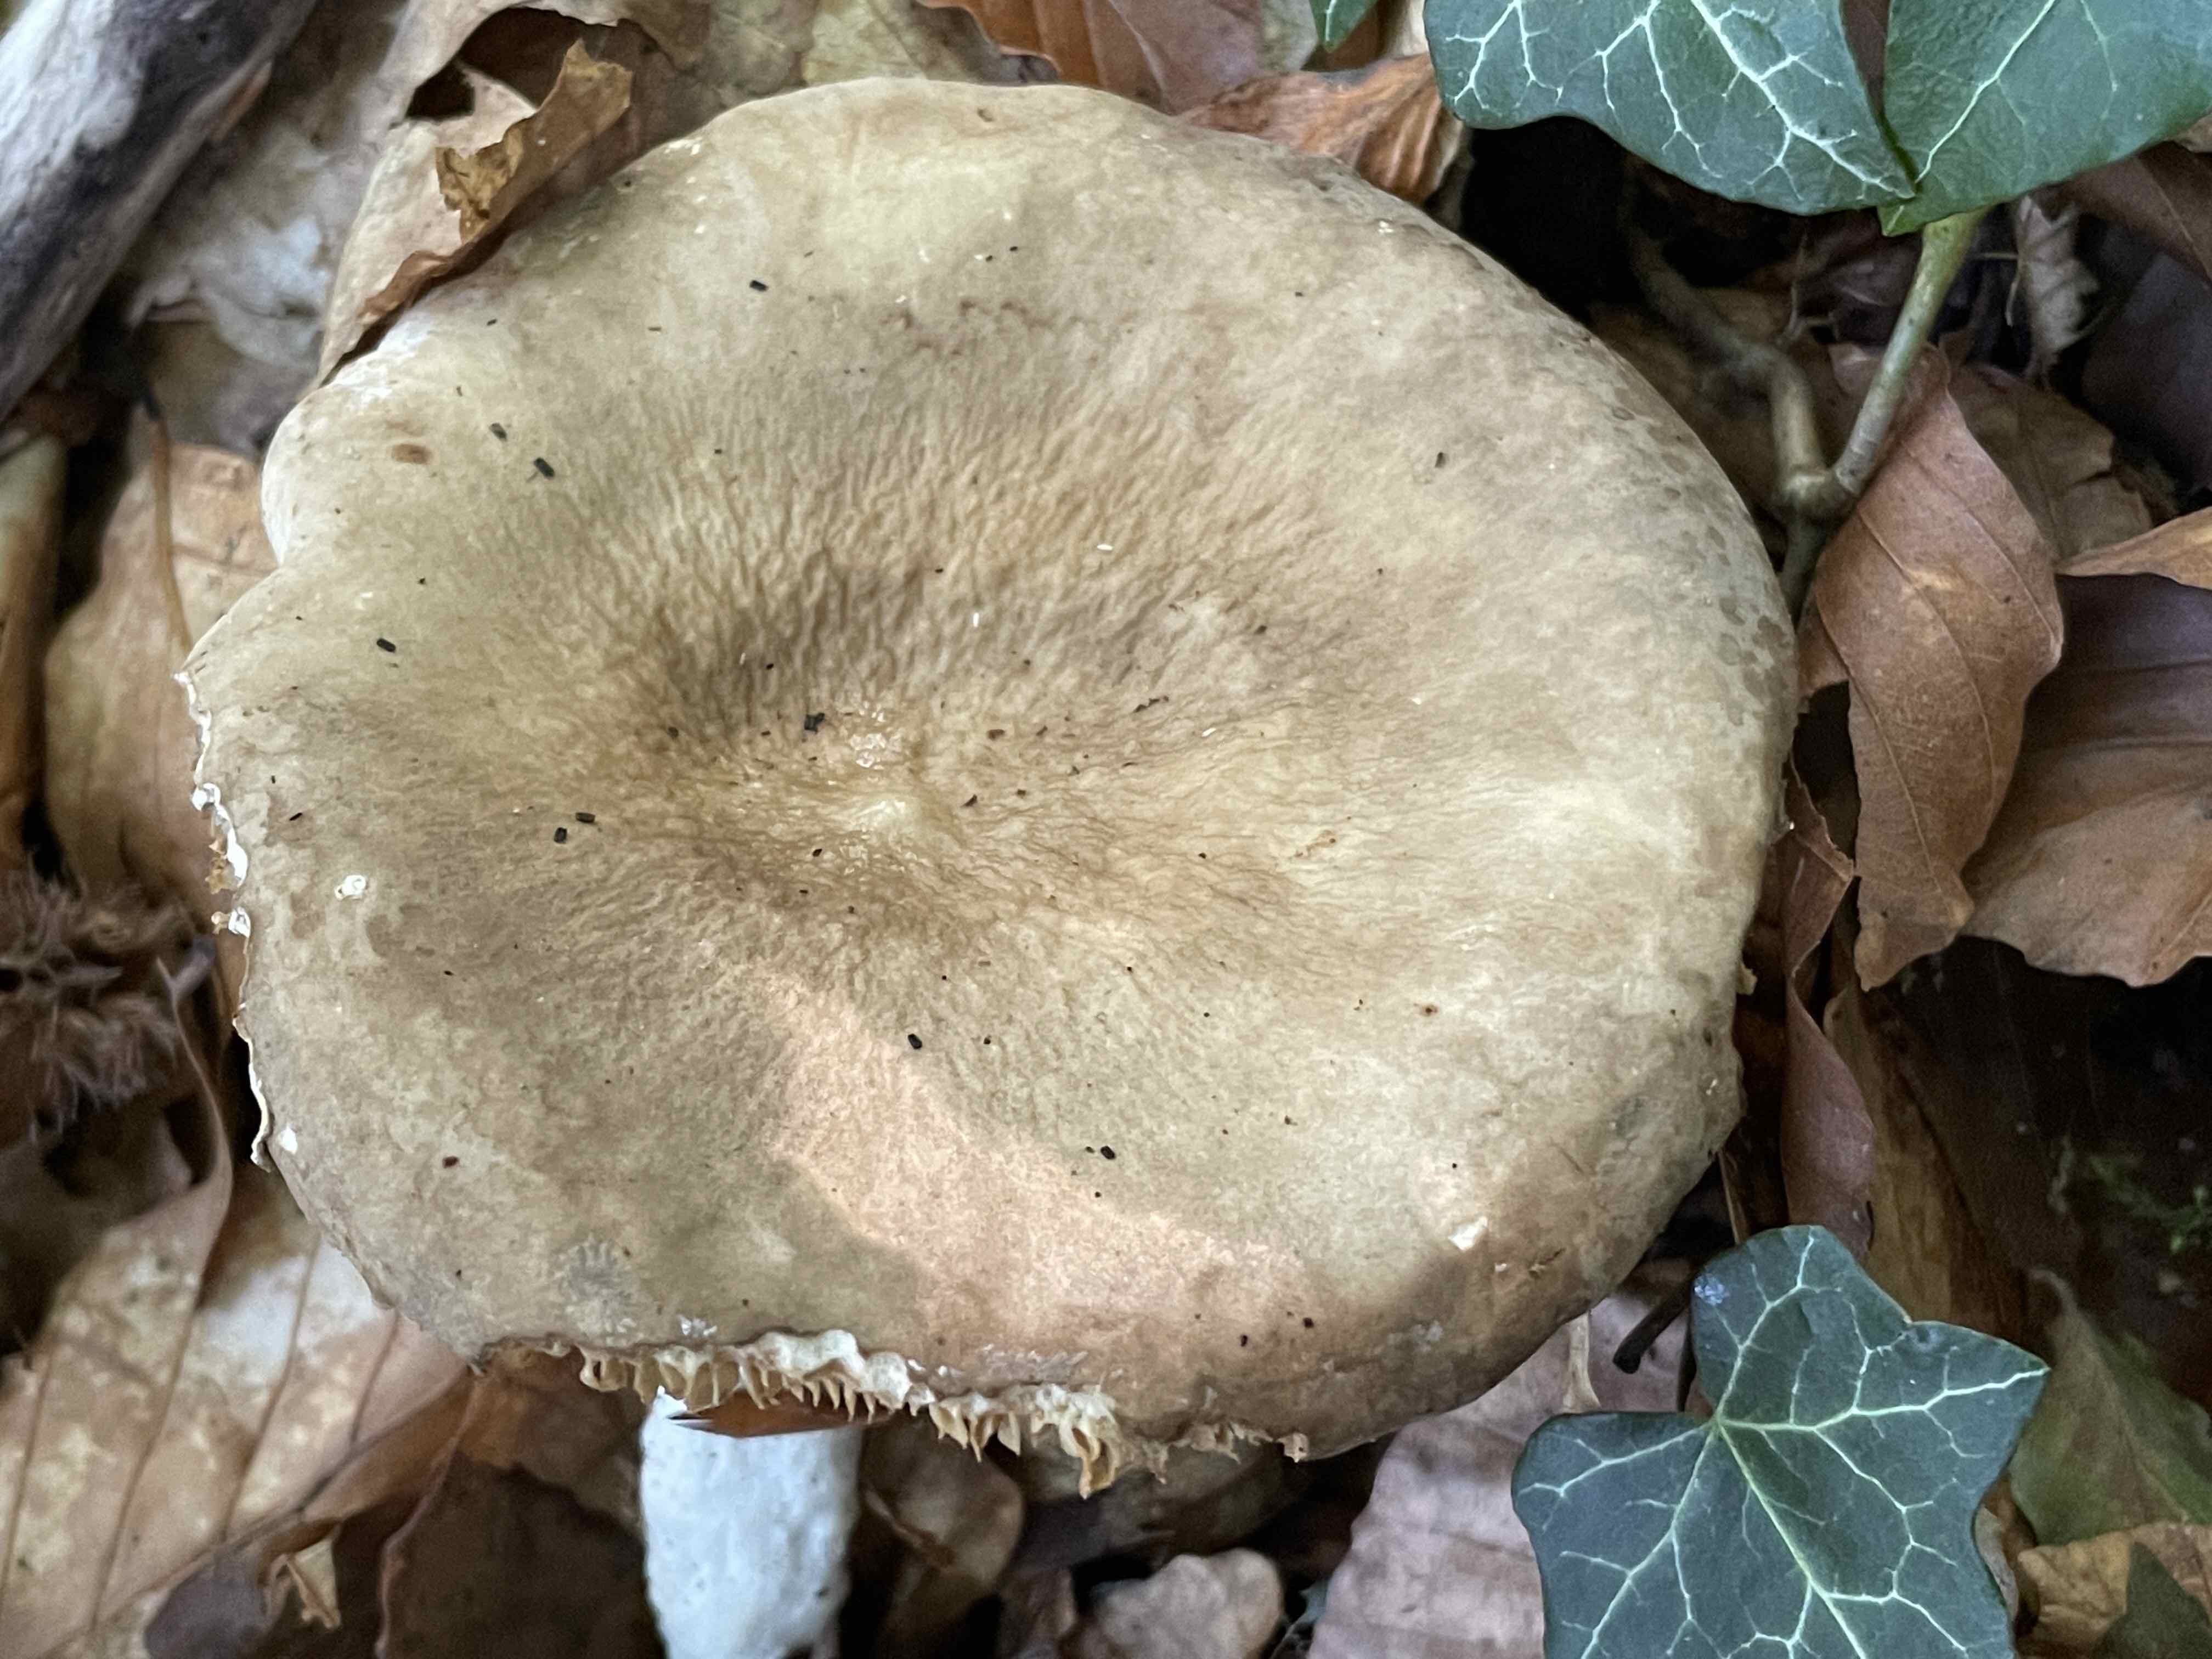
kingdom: Fungi
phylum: Basidiomycota
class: Agaricomycetes
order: Russulales
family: Russulaceae
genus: Lactarius
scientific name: Lactarius pterosporus
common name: vingesporet mælkehat
